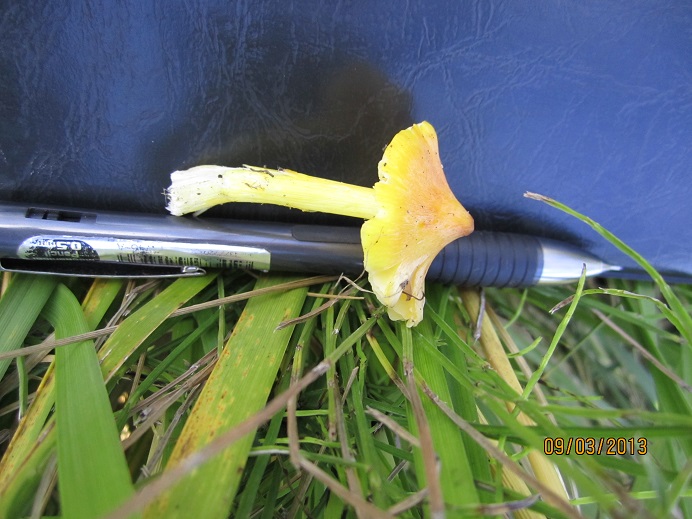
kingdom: Fungi
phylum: Basidiomycota
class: Agaricomycetes
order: Agaricales
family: Hygrophoraceae
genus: Hygrocybe
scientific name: Hygrocybe acutoconica
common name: Konrads vokshat
